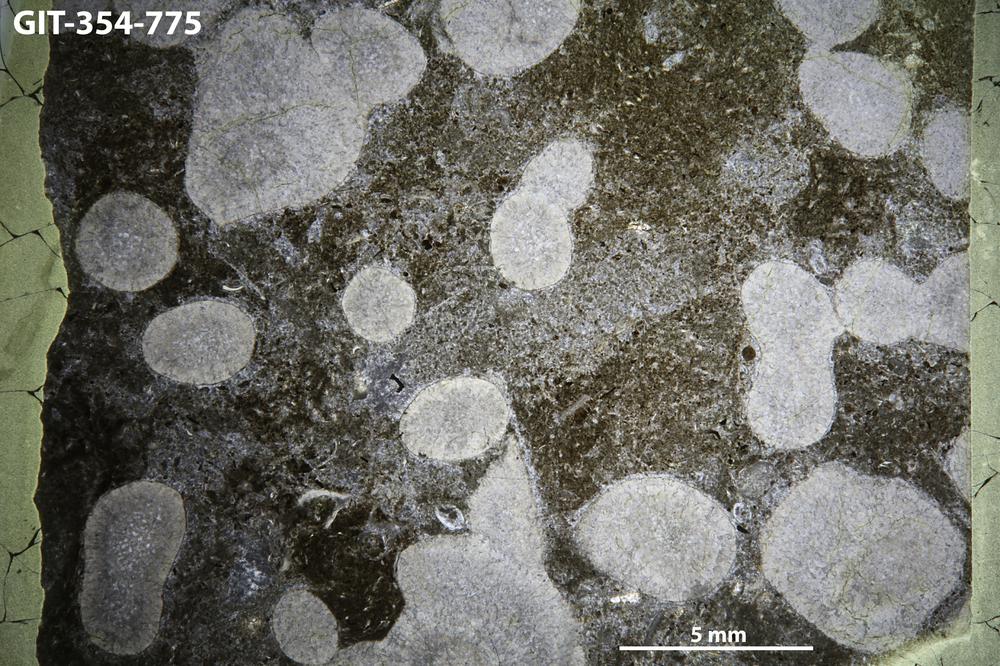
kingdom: Animalia
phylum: Nemertea
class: Hoplonemertea
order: Monostilifera
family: Amphiporidae
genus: Clathrodictyella
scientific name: Clathrodictyella
